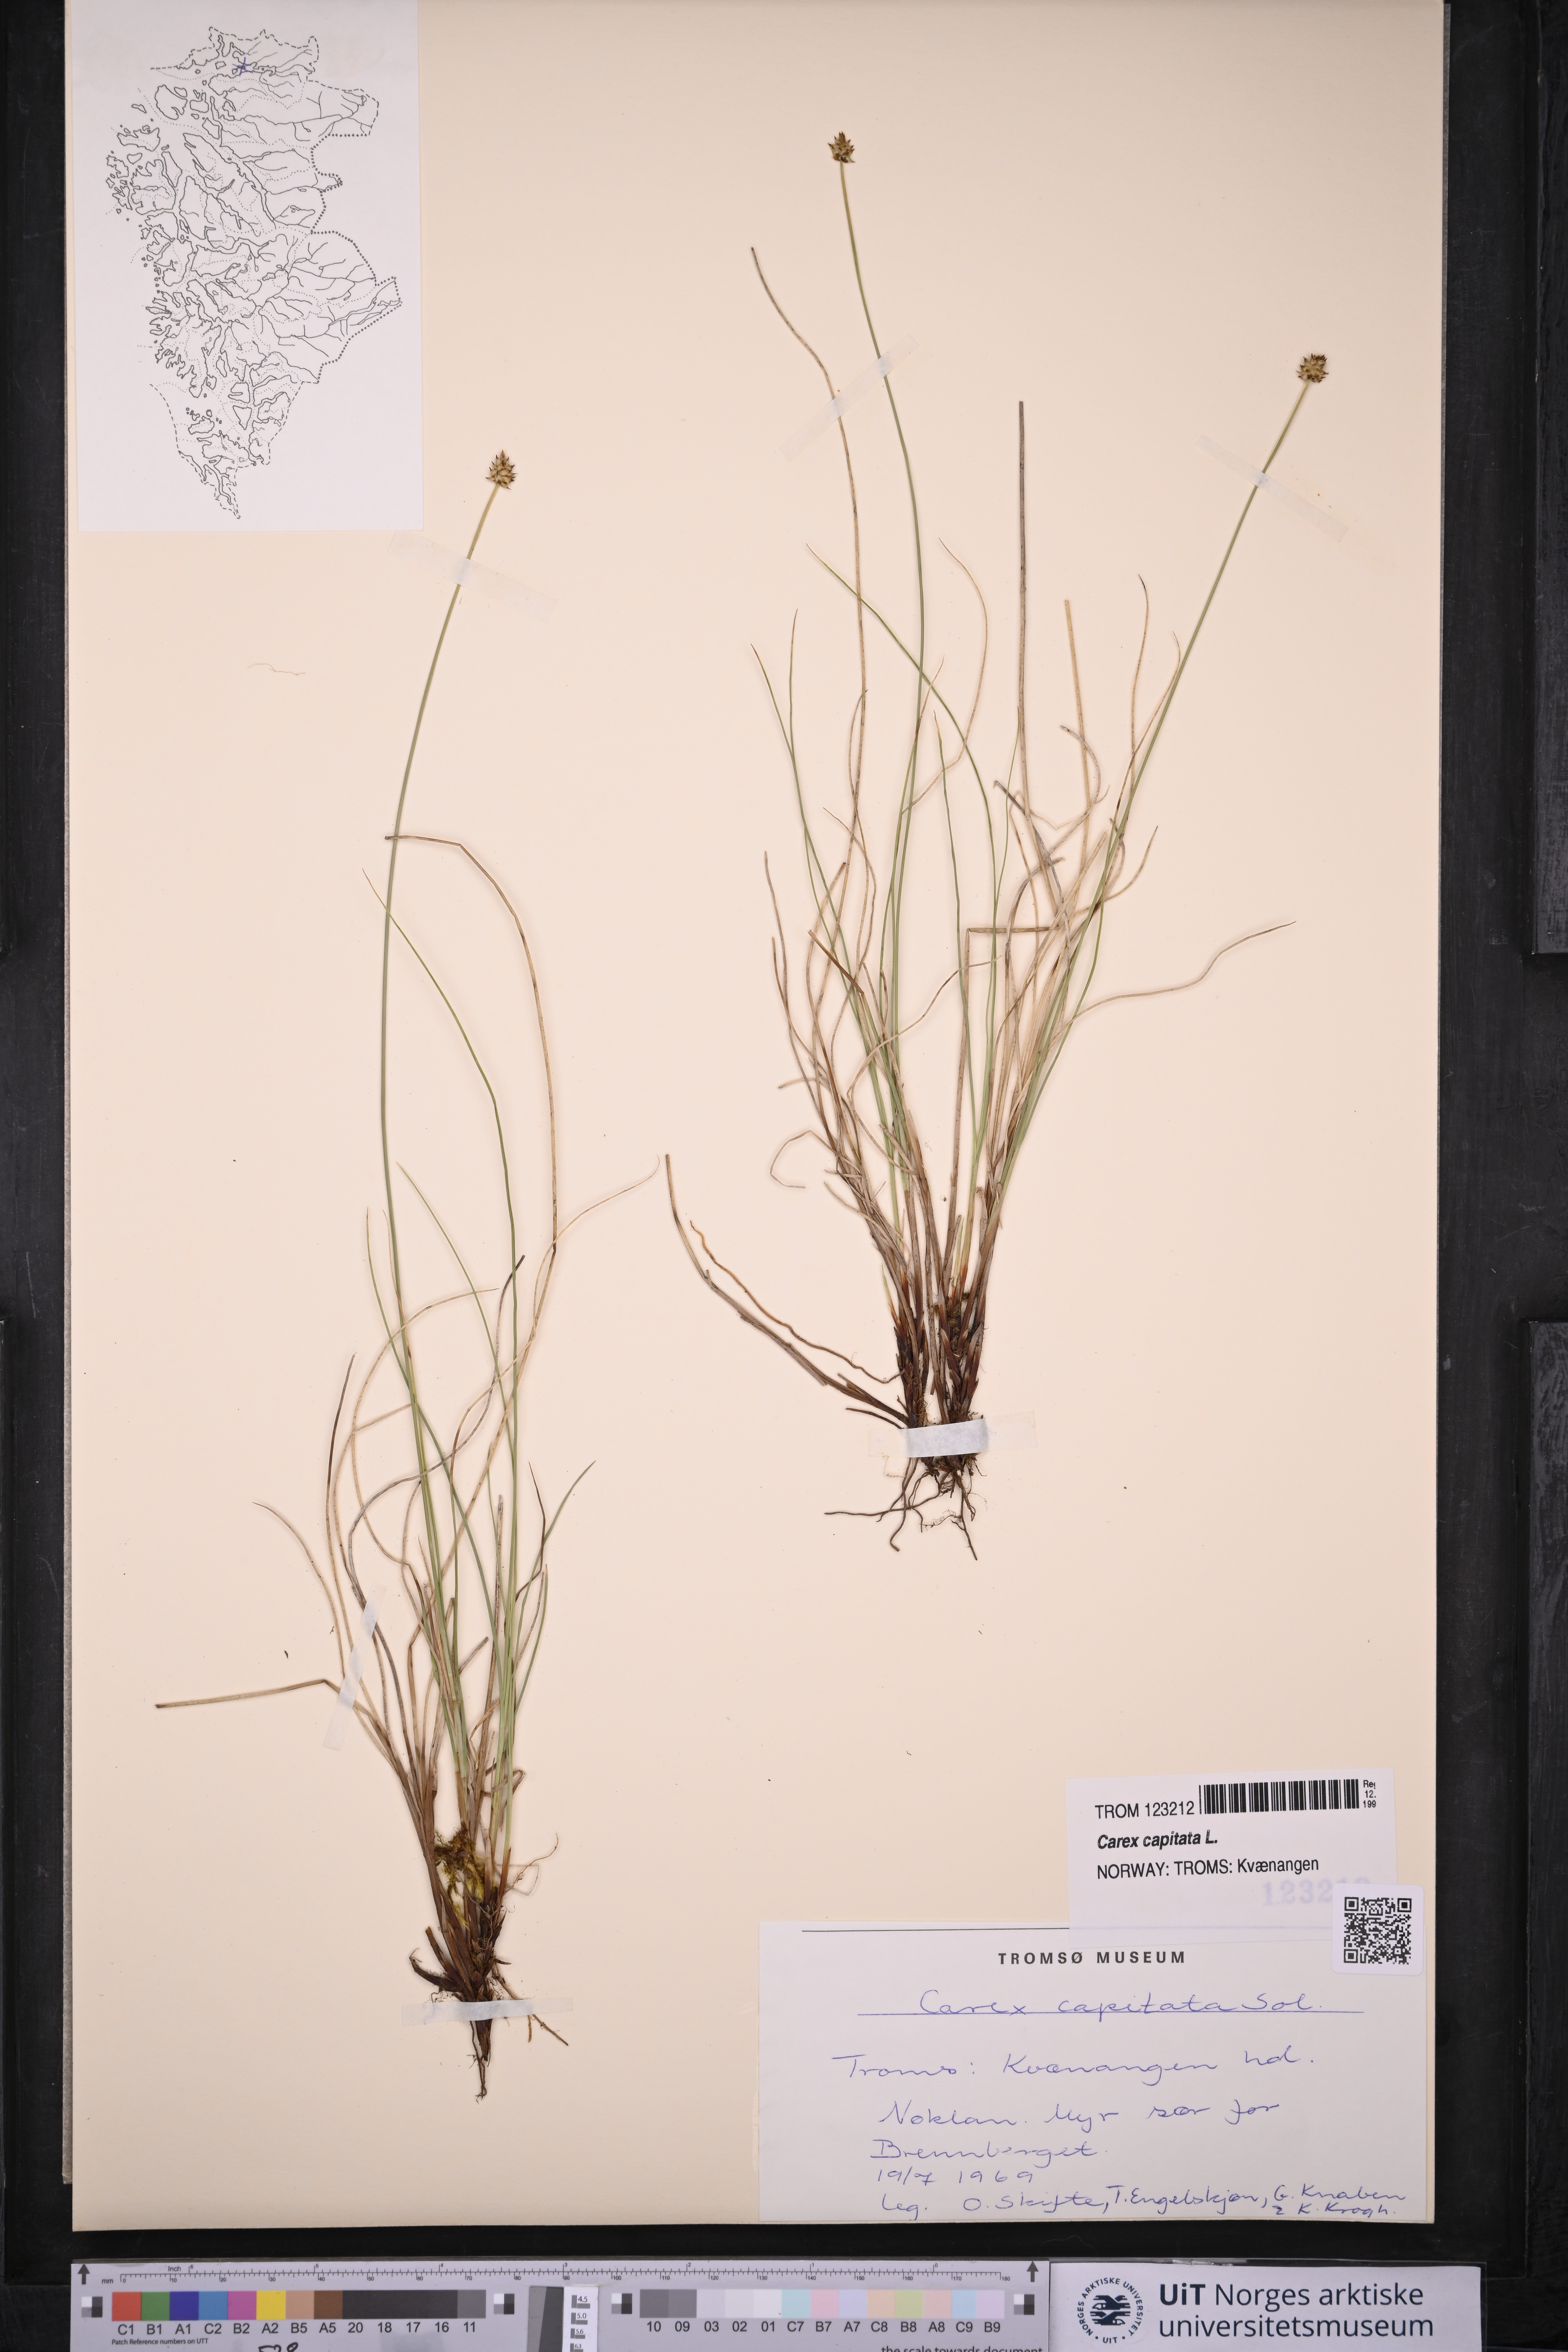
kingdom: Plantae
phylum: Tracheophyta
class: Liliopsida
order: Poales
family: Cyperaceae
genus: Carex
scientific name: Carex capitata
